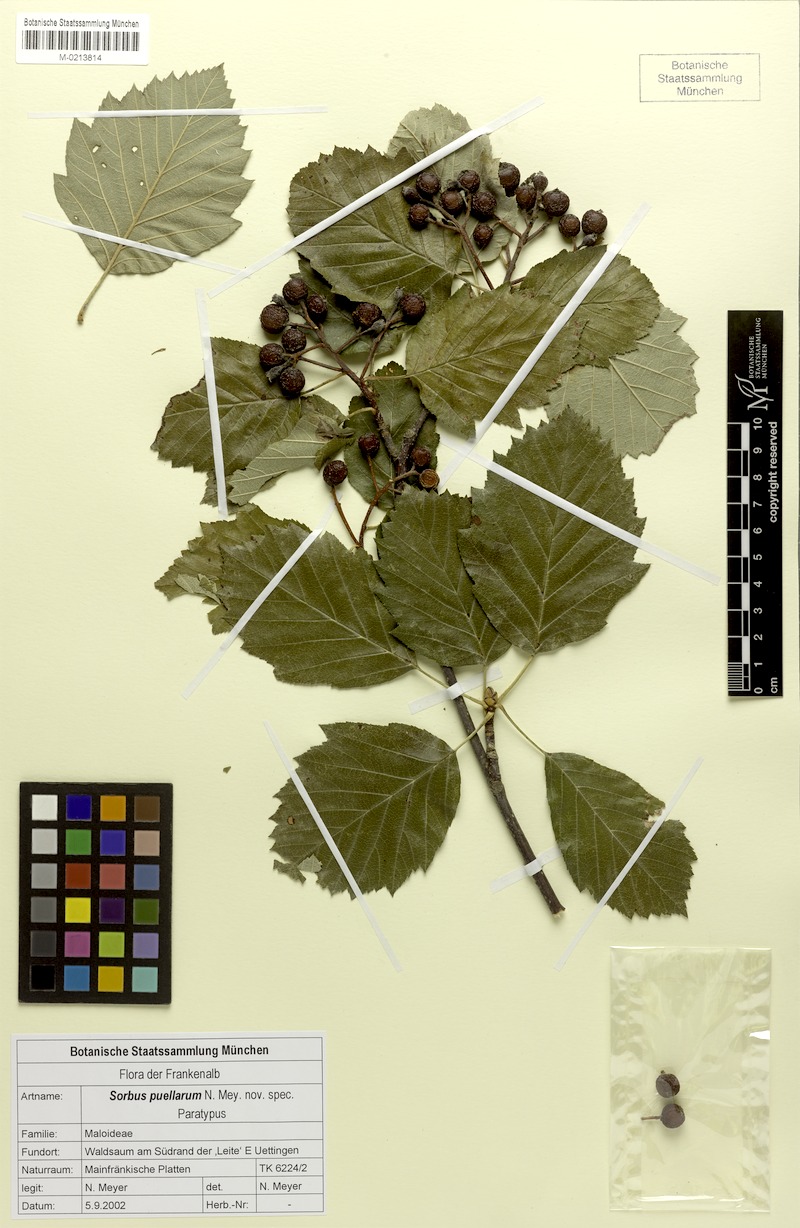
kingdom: Plantae
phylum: Tracheophyta
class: Magnoliopsida
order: Rosales
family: Rosaceae
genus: Karpatiosorbus
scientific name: Karpatiosorbus puellarum
